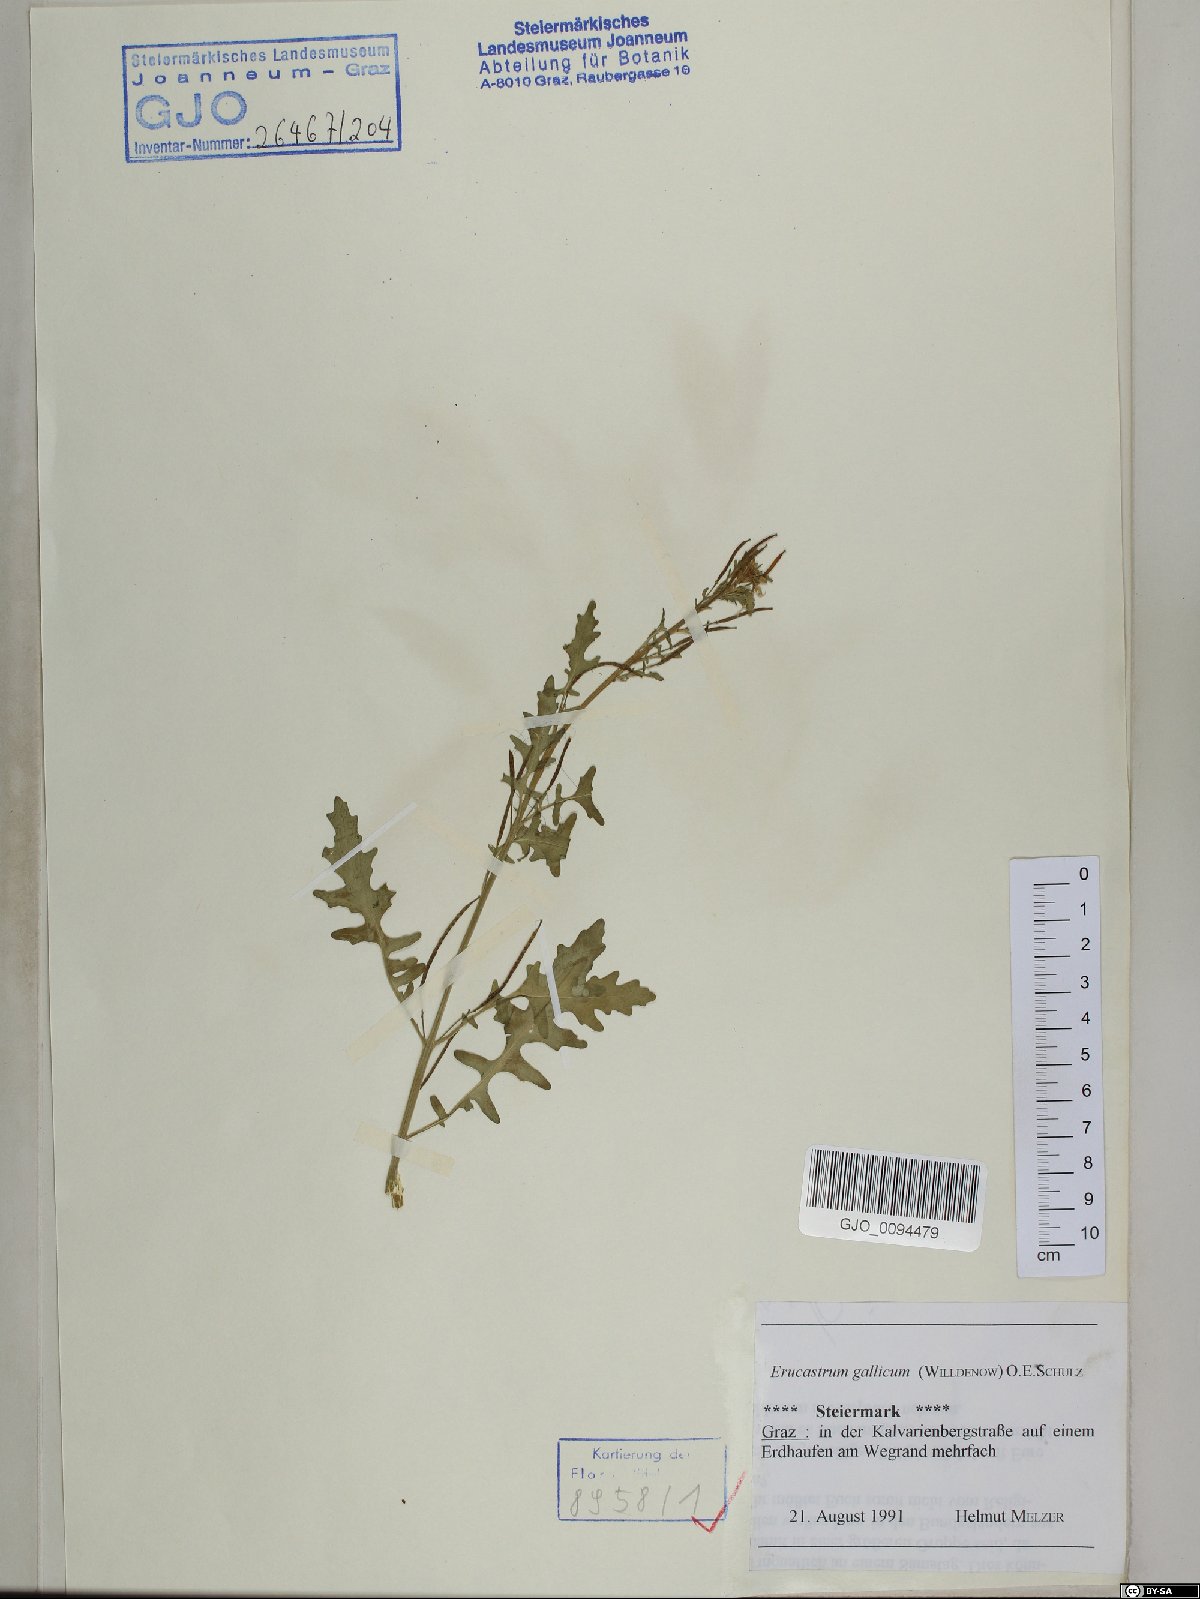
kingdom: Plantae
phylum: Tracheophyta
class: Magnoliopsida
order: Brassicales
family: Brassicaceae
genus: Erucastrum
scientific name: Erucastrum gallicum
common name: Hairy rocket
